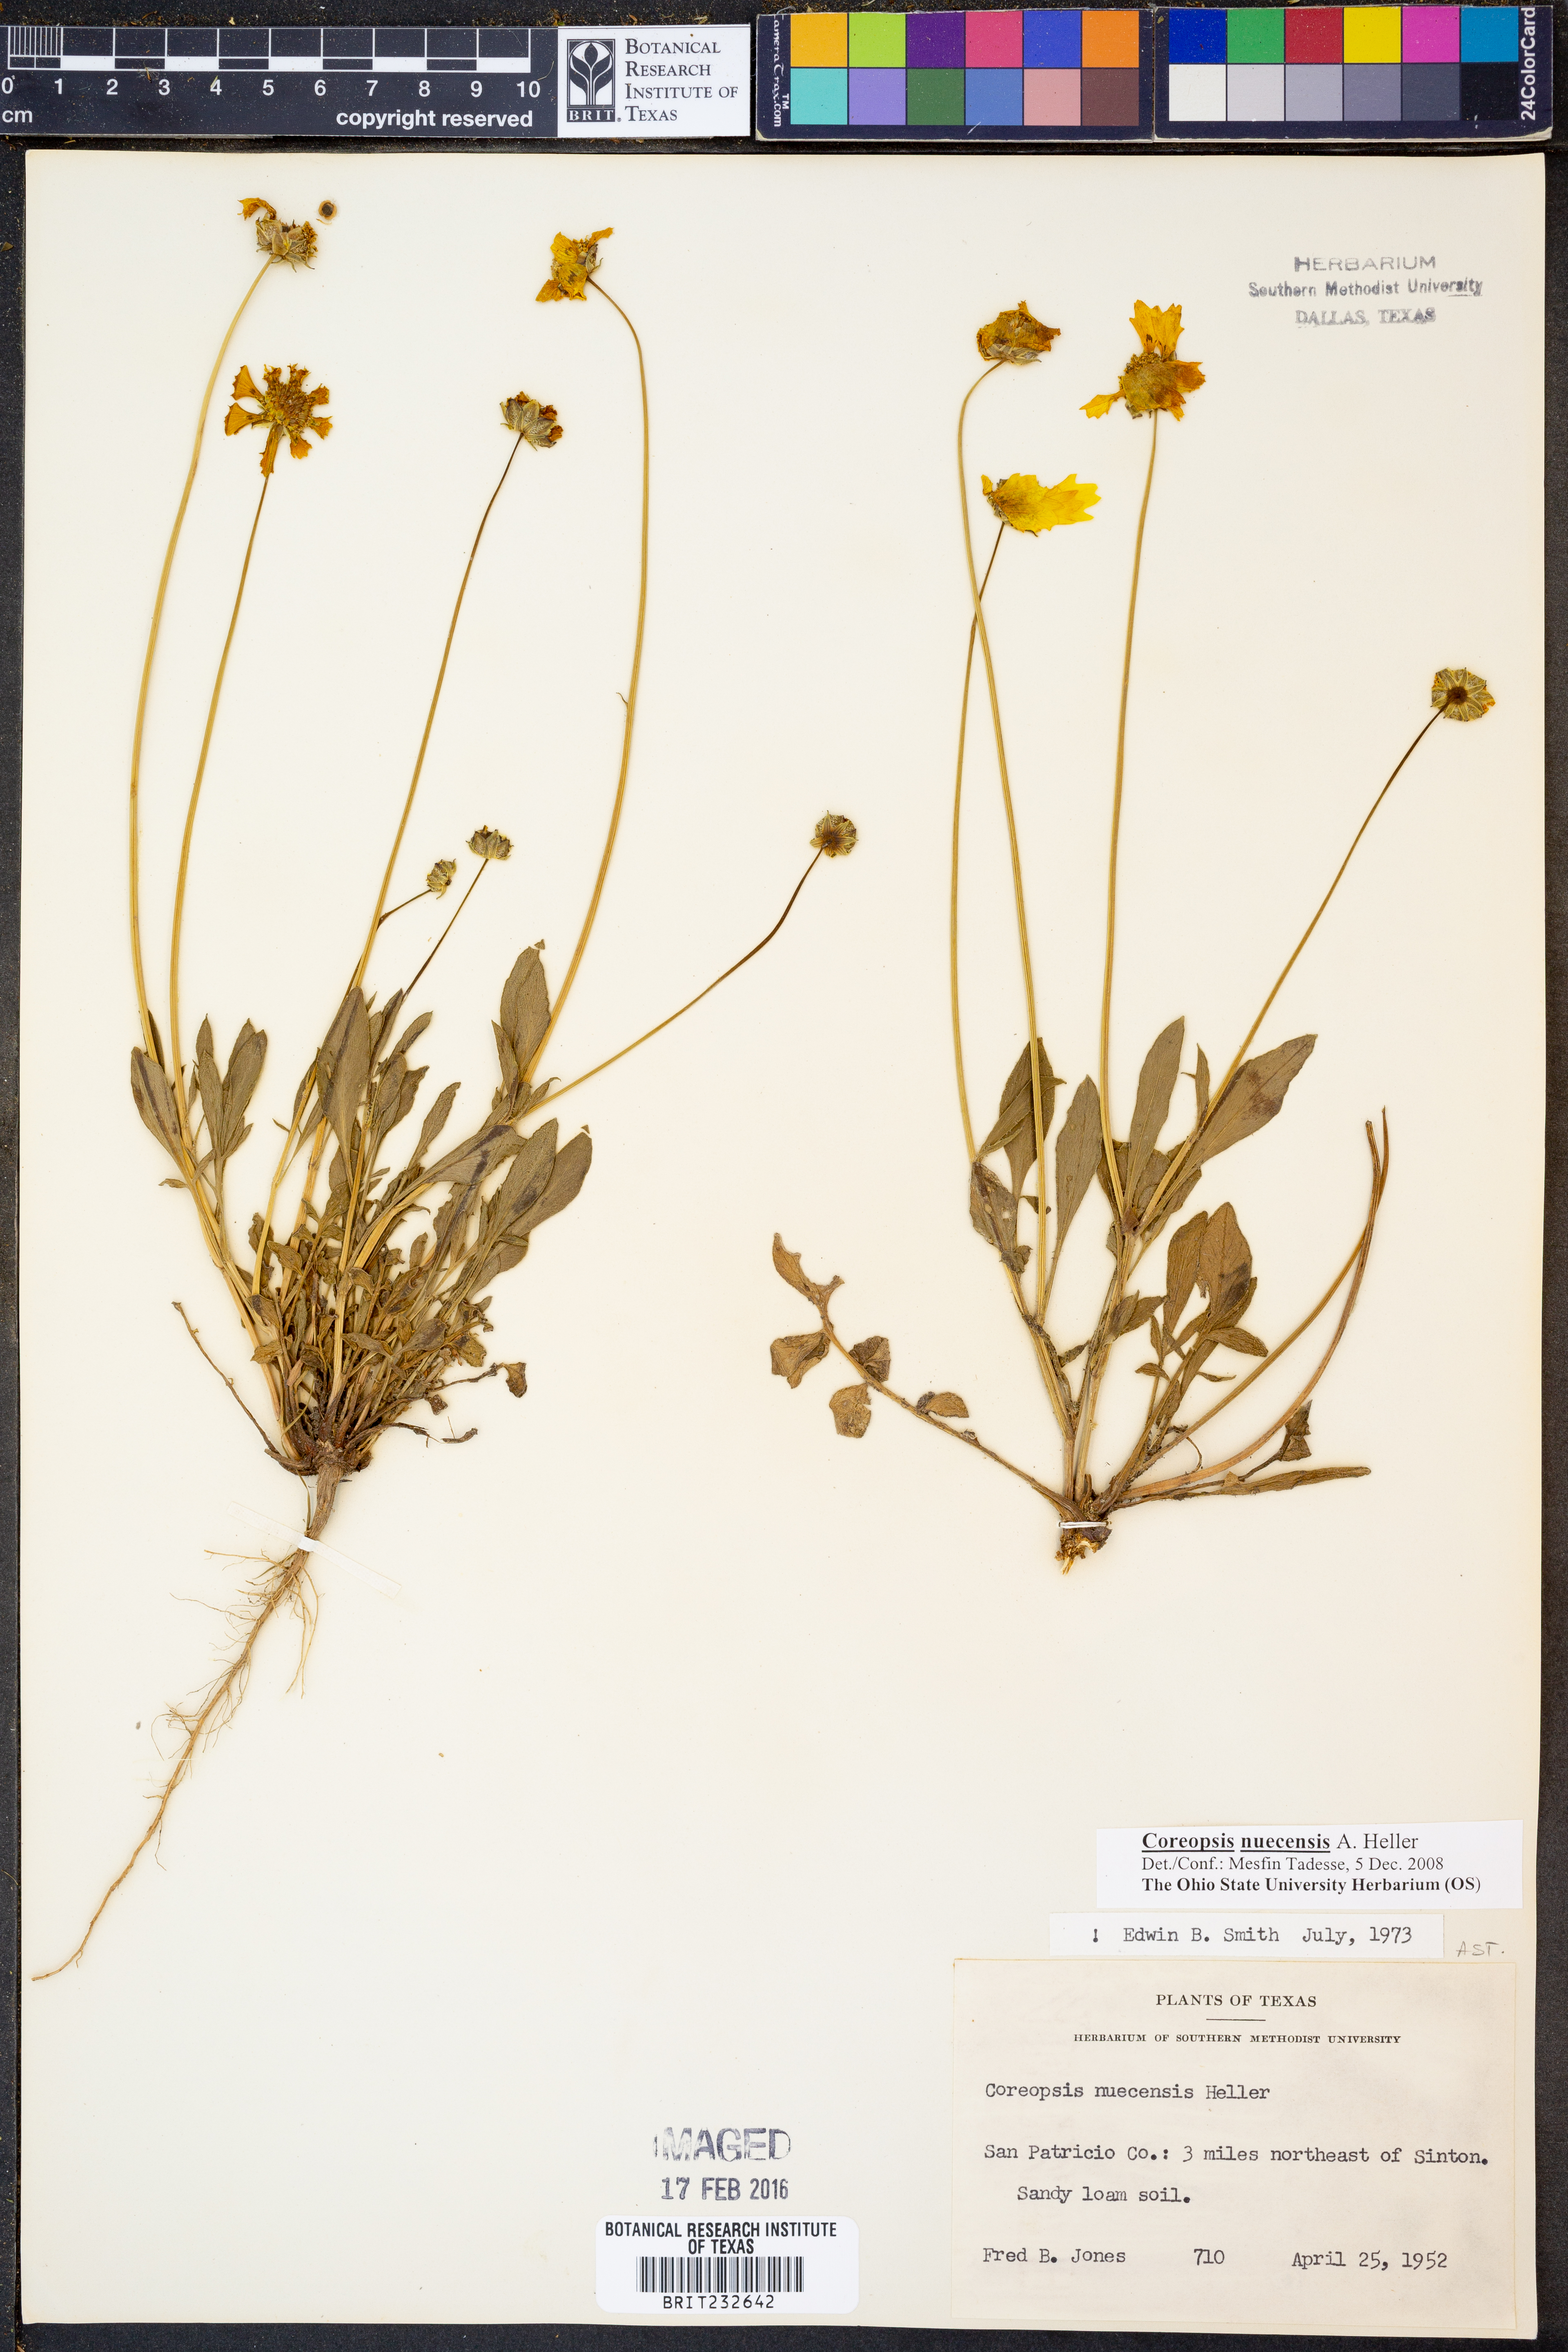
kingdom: Plantae
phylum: Tracheophyta
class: Magnoliopsida
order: Asterales
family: Asteraceae
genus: Coreopsis
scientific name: Coreopsis nuecensis
